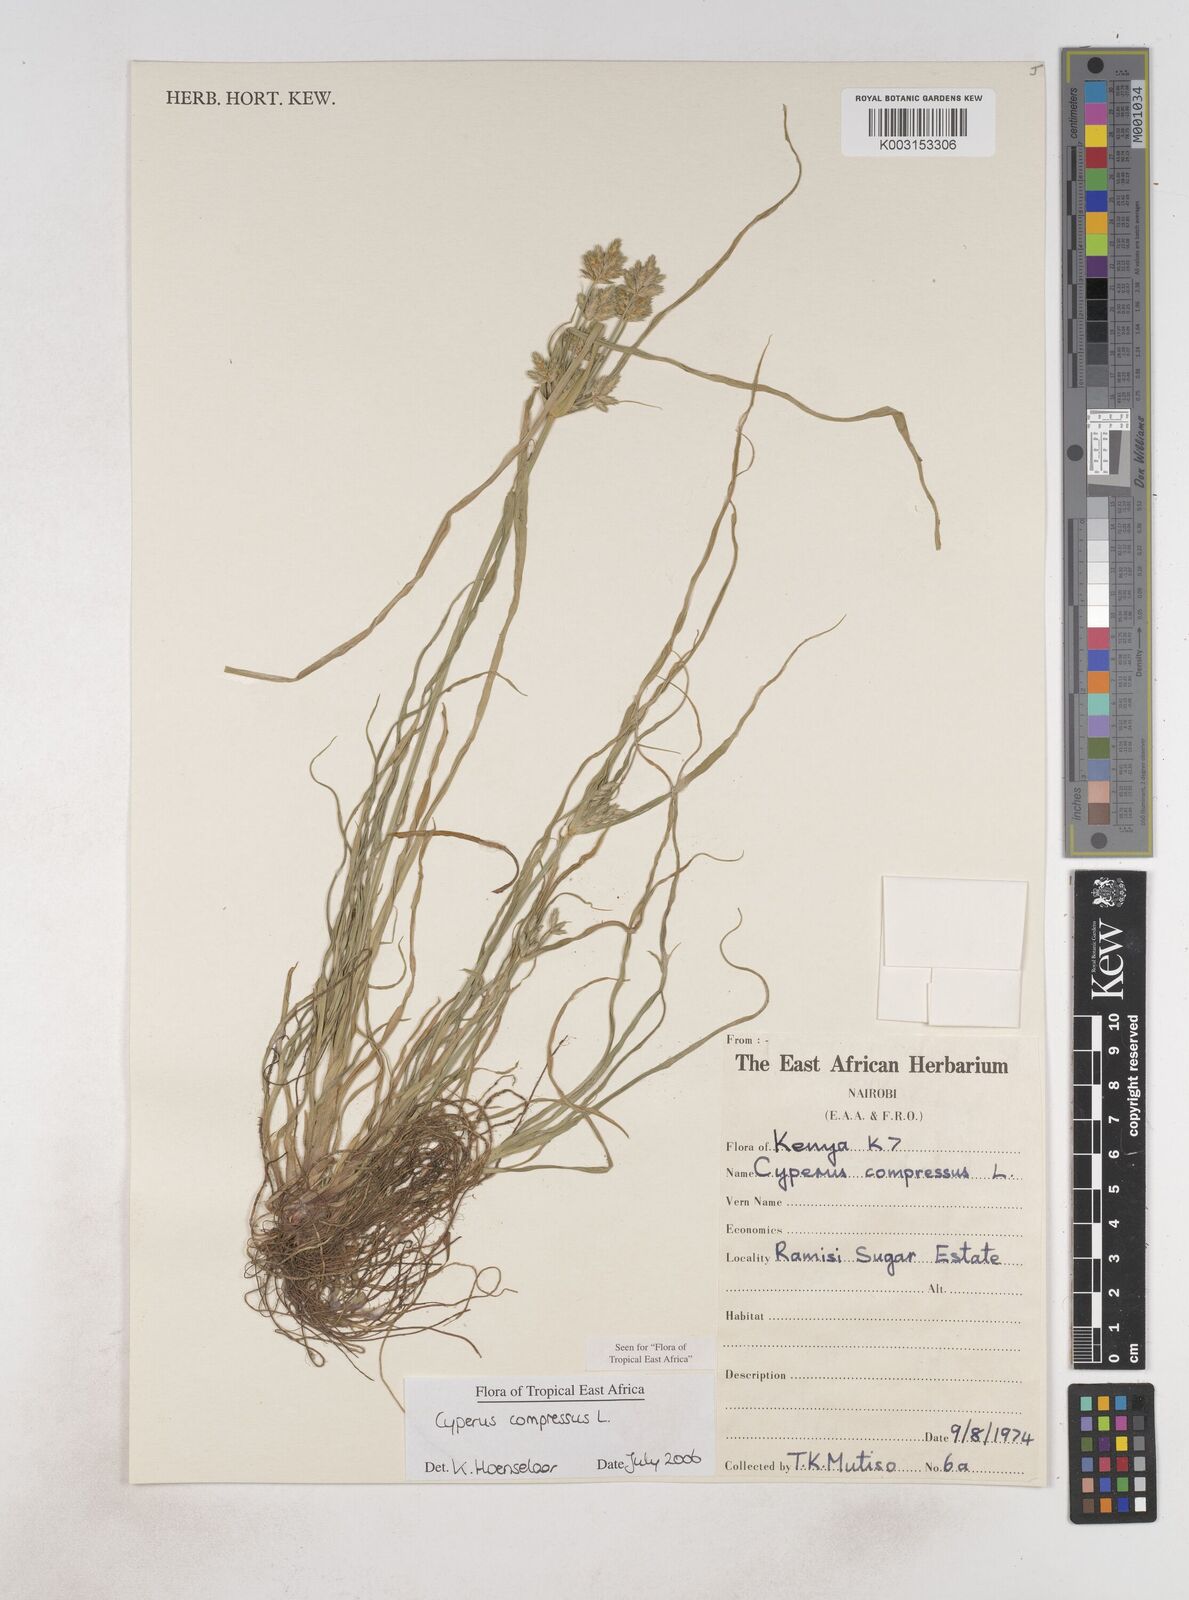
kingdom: Plantae
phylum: Tracheophyta
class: Liliopsida
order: Poales
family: Cyperaceae
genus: Cyperus
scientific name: Cyperus compressus
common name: Poorland flatsedge
